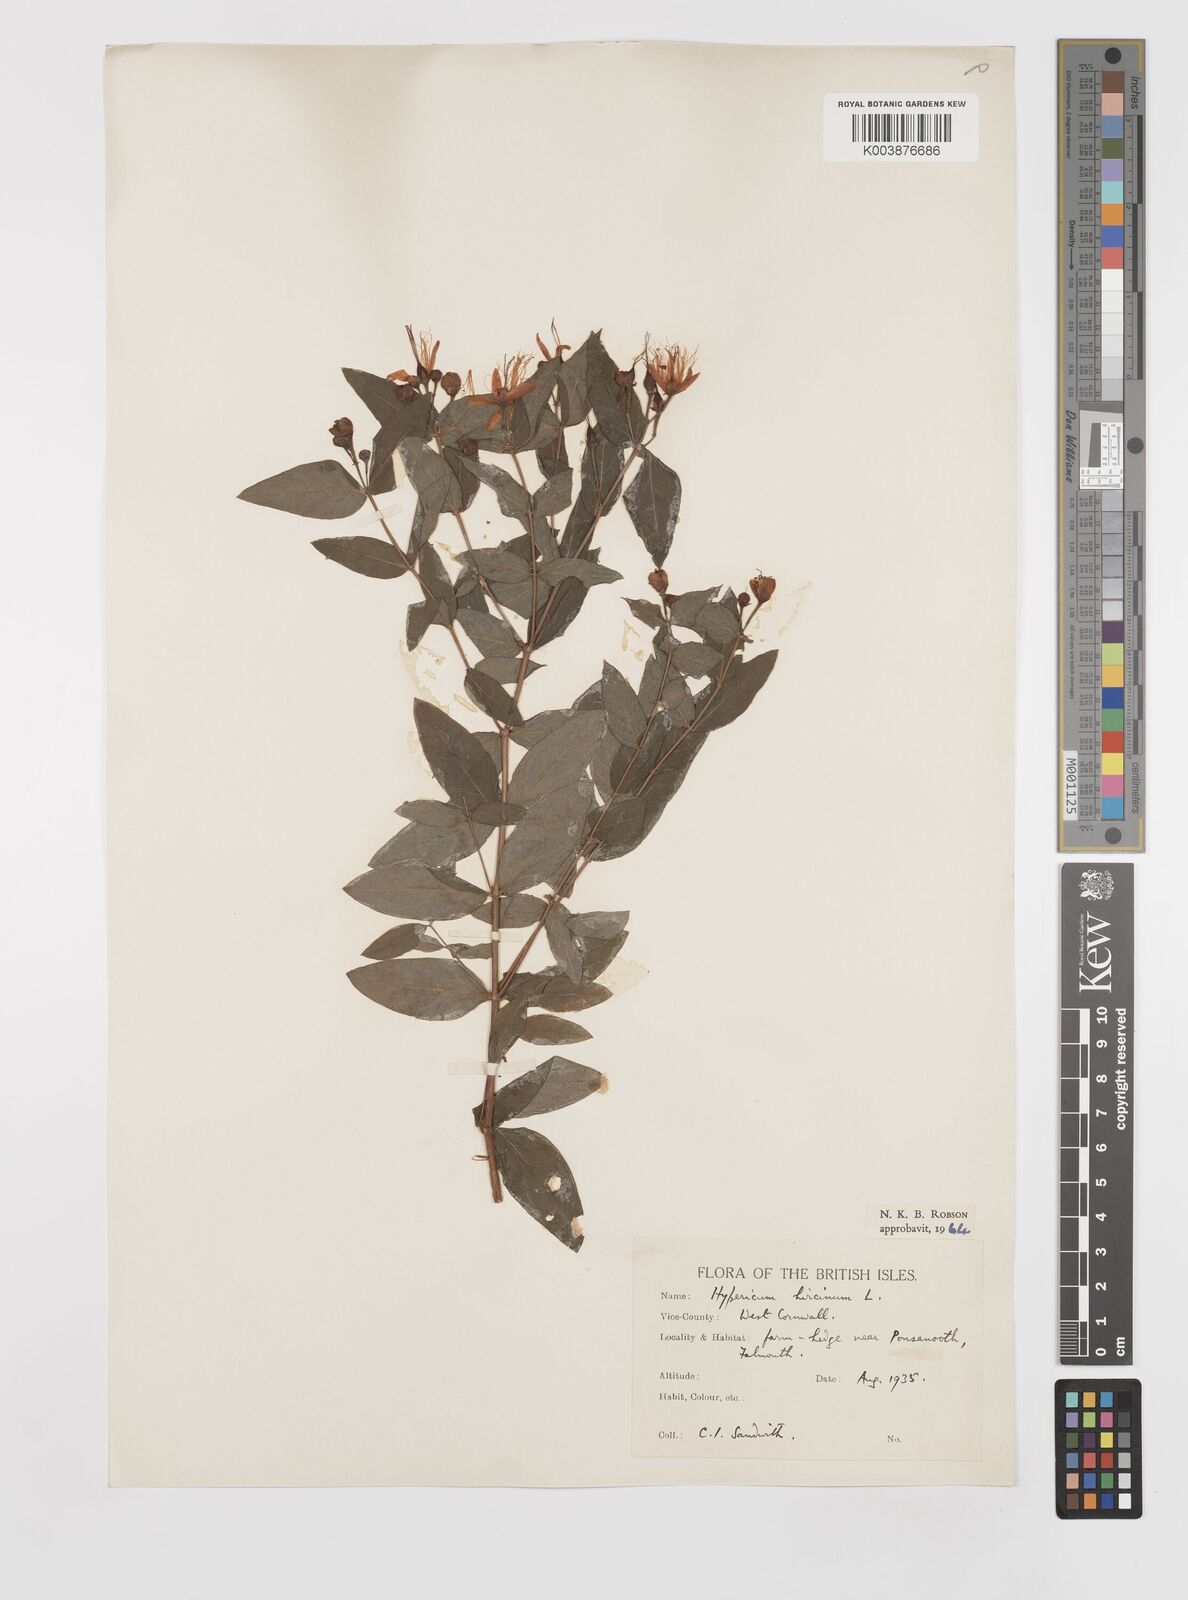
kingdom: Plantae
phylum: Tracheophyta
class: Magnoliopsida
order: Malpighiales
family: Hypericaceae
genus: Hypericum
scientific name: Hypericum hircinum
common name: Stinking tutsan
